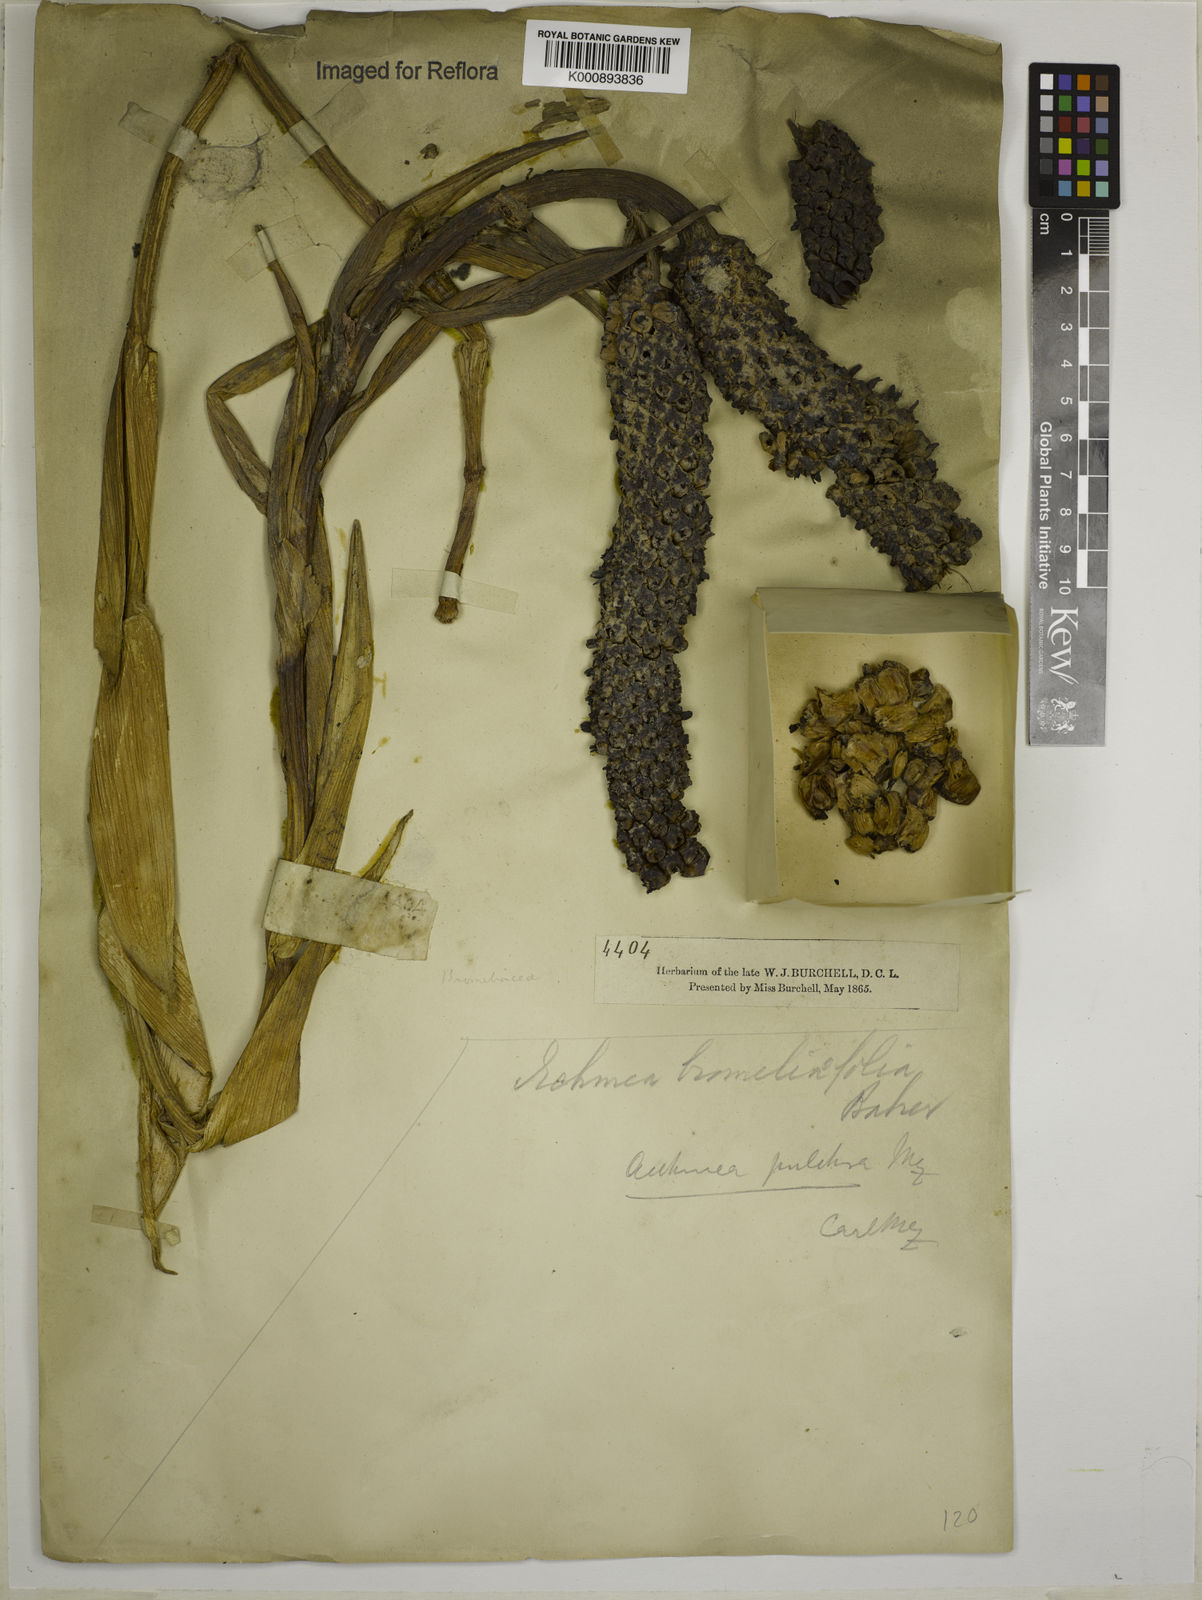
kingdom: Plantae
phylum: Tracheophyta
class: Liliopsida
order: Poales
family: Bromeliaceae
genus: Aechmea
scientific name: Aechmea
